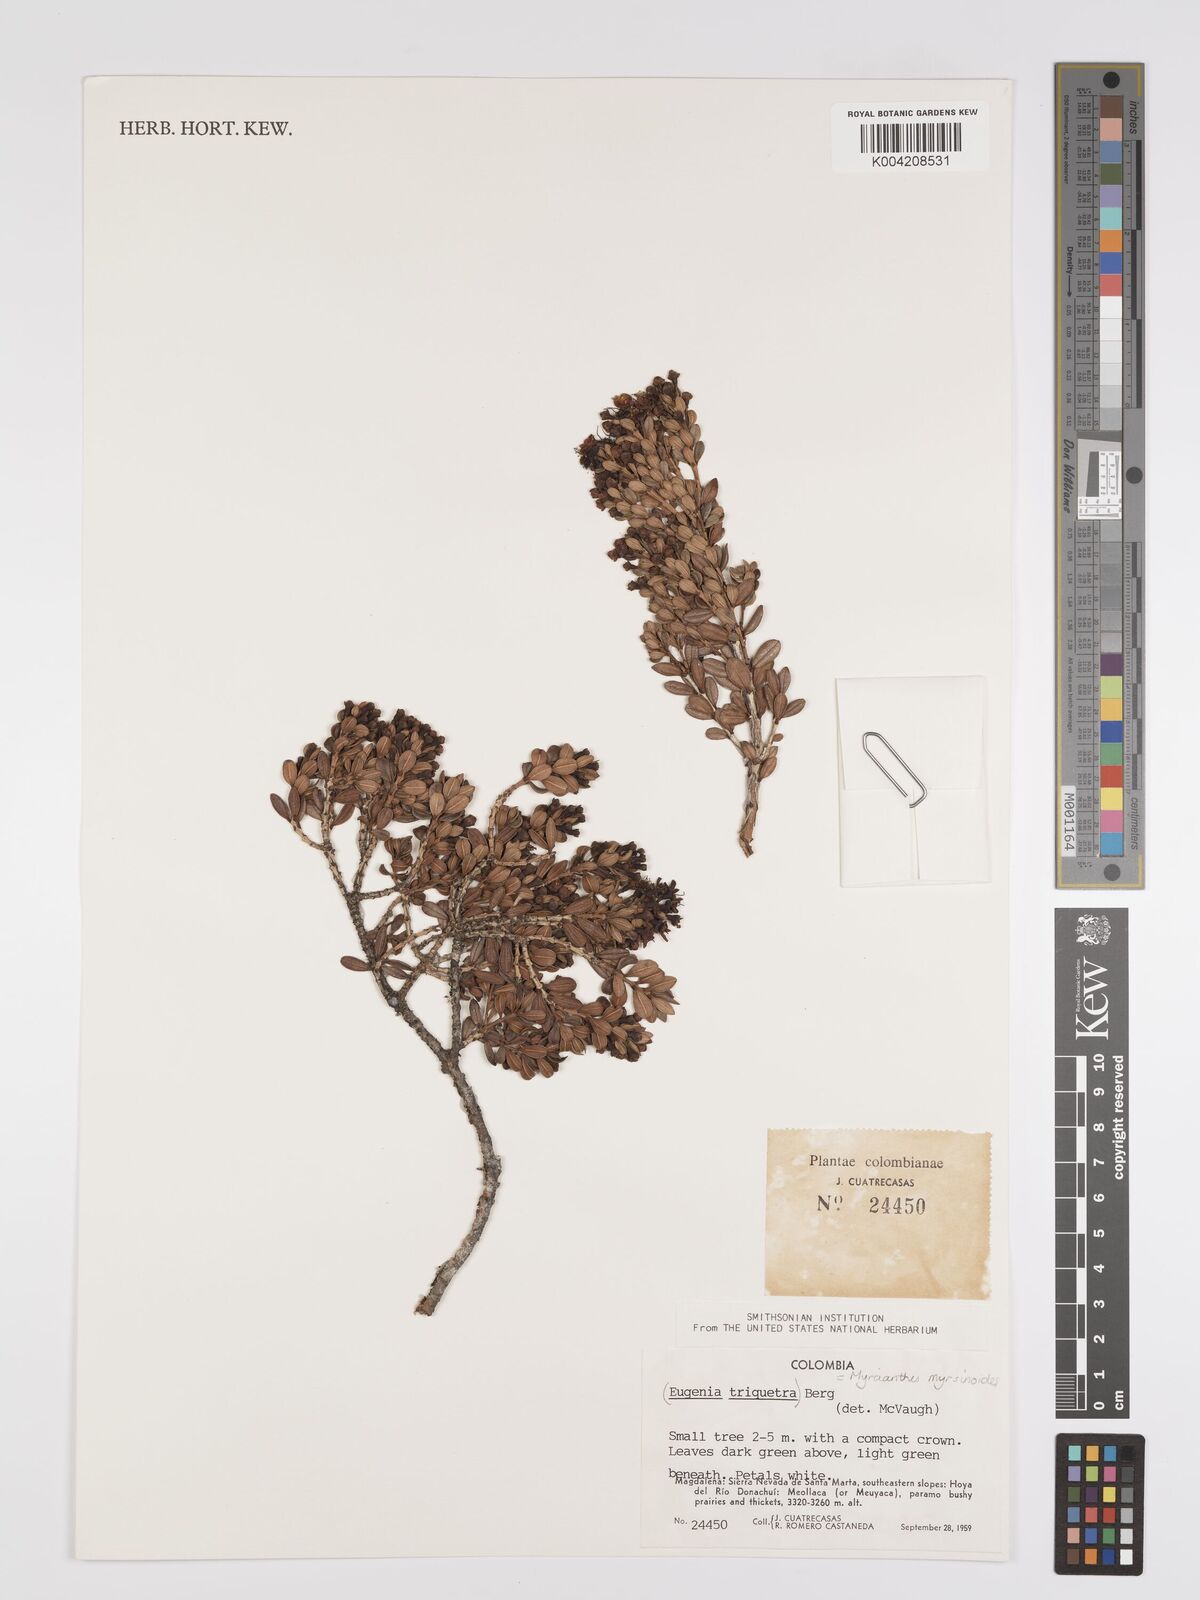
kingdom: Plantae
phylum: Tracheophyta
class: Magnoliopsida
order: Myrtales
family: Myrtaceae
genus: Myrcianthes
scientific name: Myrcianthes myrsinoides
